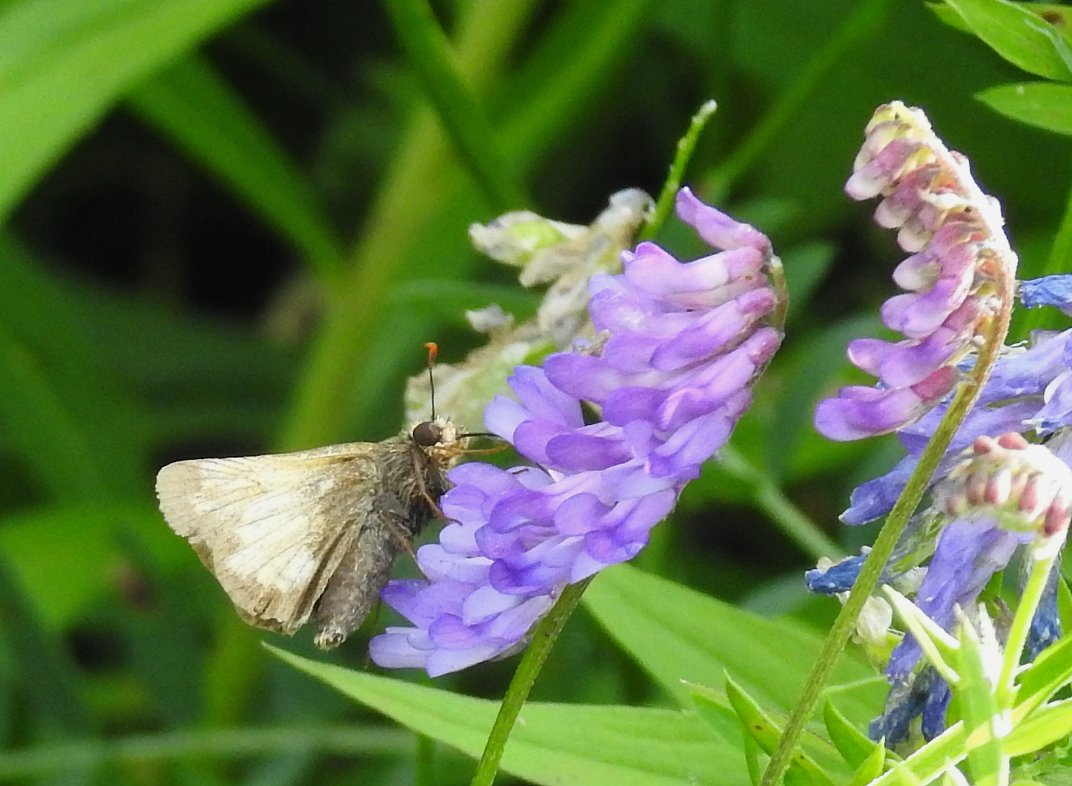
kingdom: Animalia
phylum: Arthropoda
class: Insecta
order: Lepidoptera
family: Hesperiidae
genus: Lon
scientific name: Lon hobomok
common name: Hobomok Skipper
